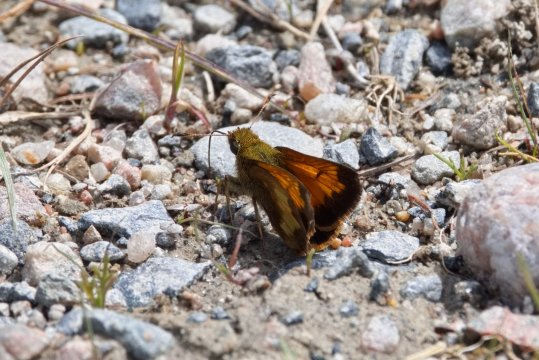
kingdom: Animalia
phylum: Arthropoda
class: Insecta
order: Lepidoptera
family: Hesperiidae
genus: Lon
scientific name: Lon hobomok
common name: Hobomok Skipper
